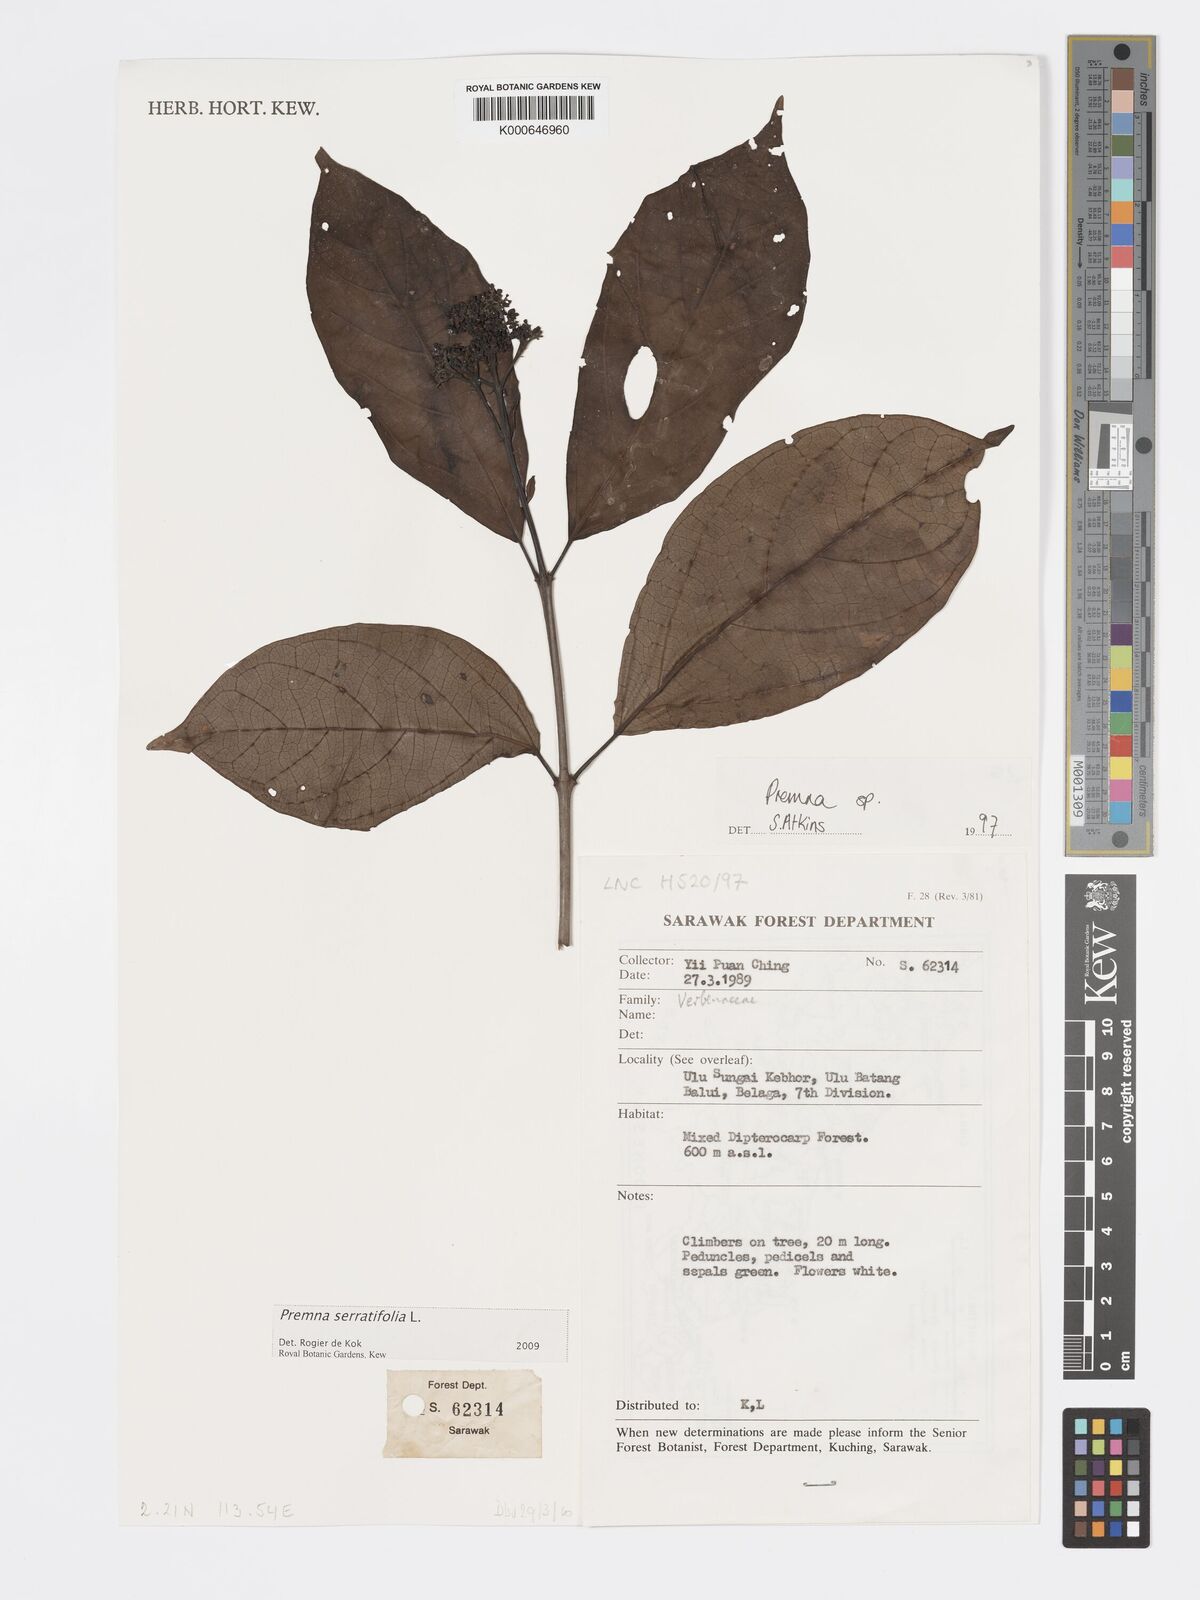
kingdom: Plantae
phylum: Tracheophyta
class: Magnoliopsida
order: Lamiales
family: Lamiaceae
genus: Premna
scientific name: Premna serratifolia
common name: Bastard guelder
